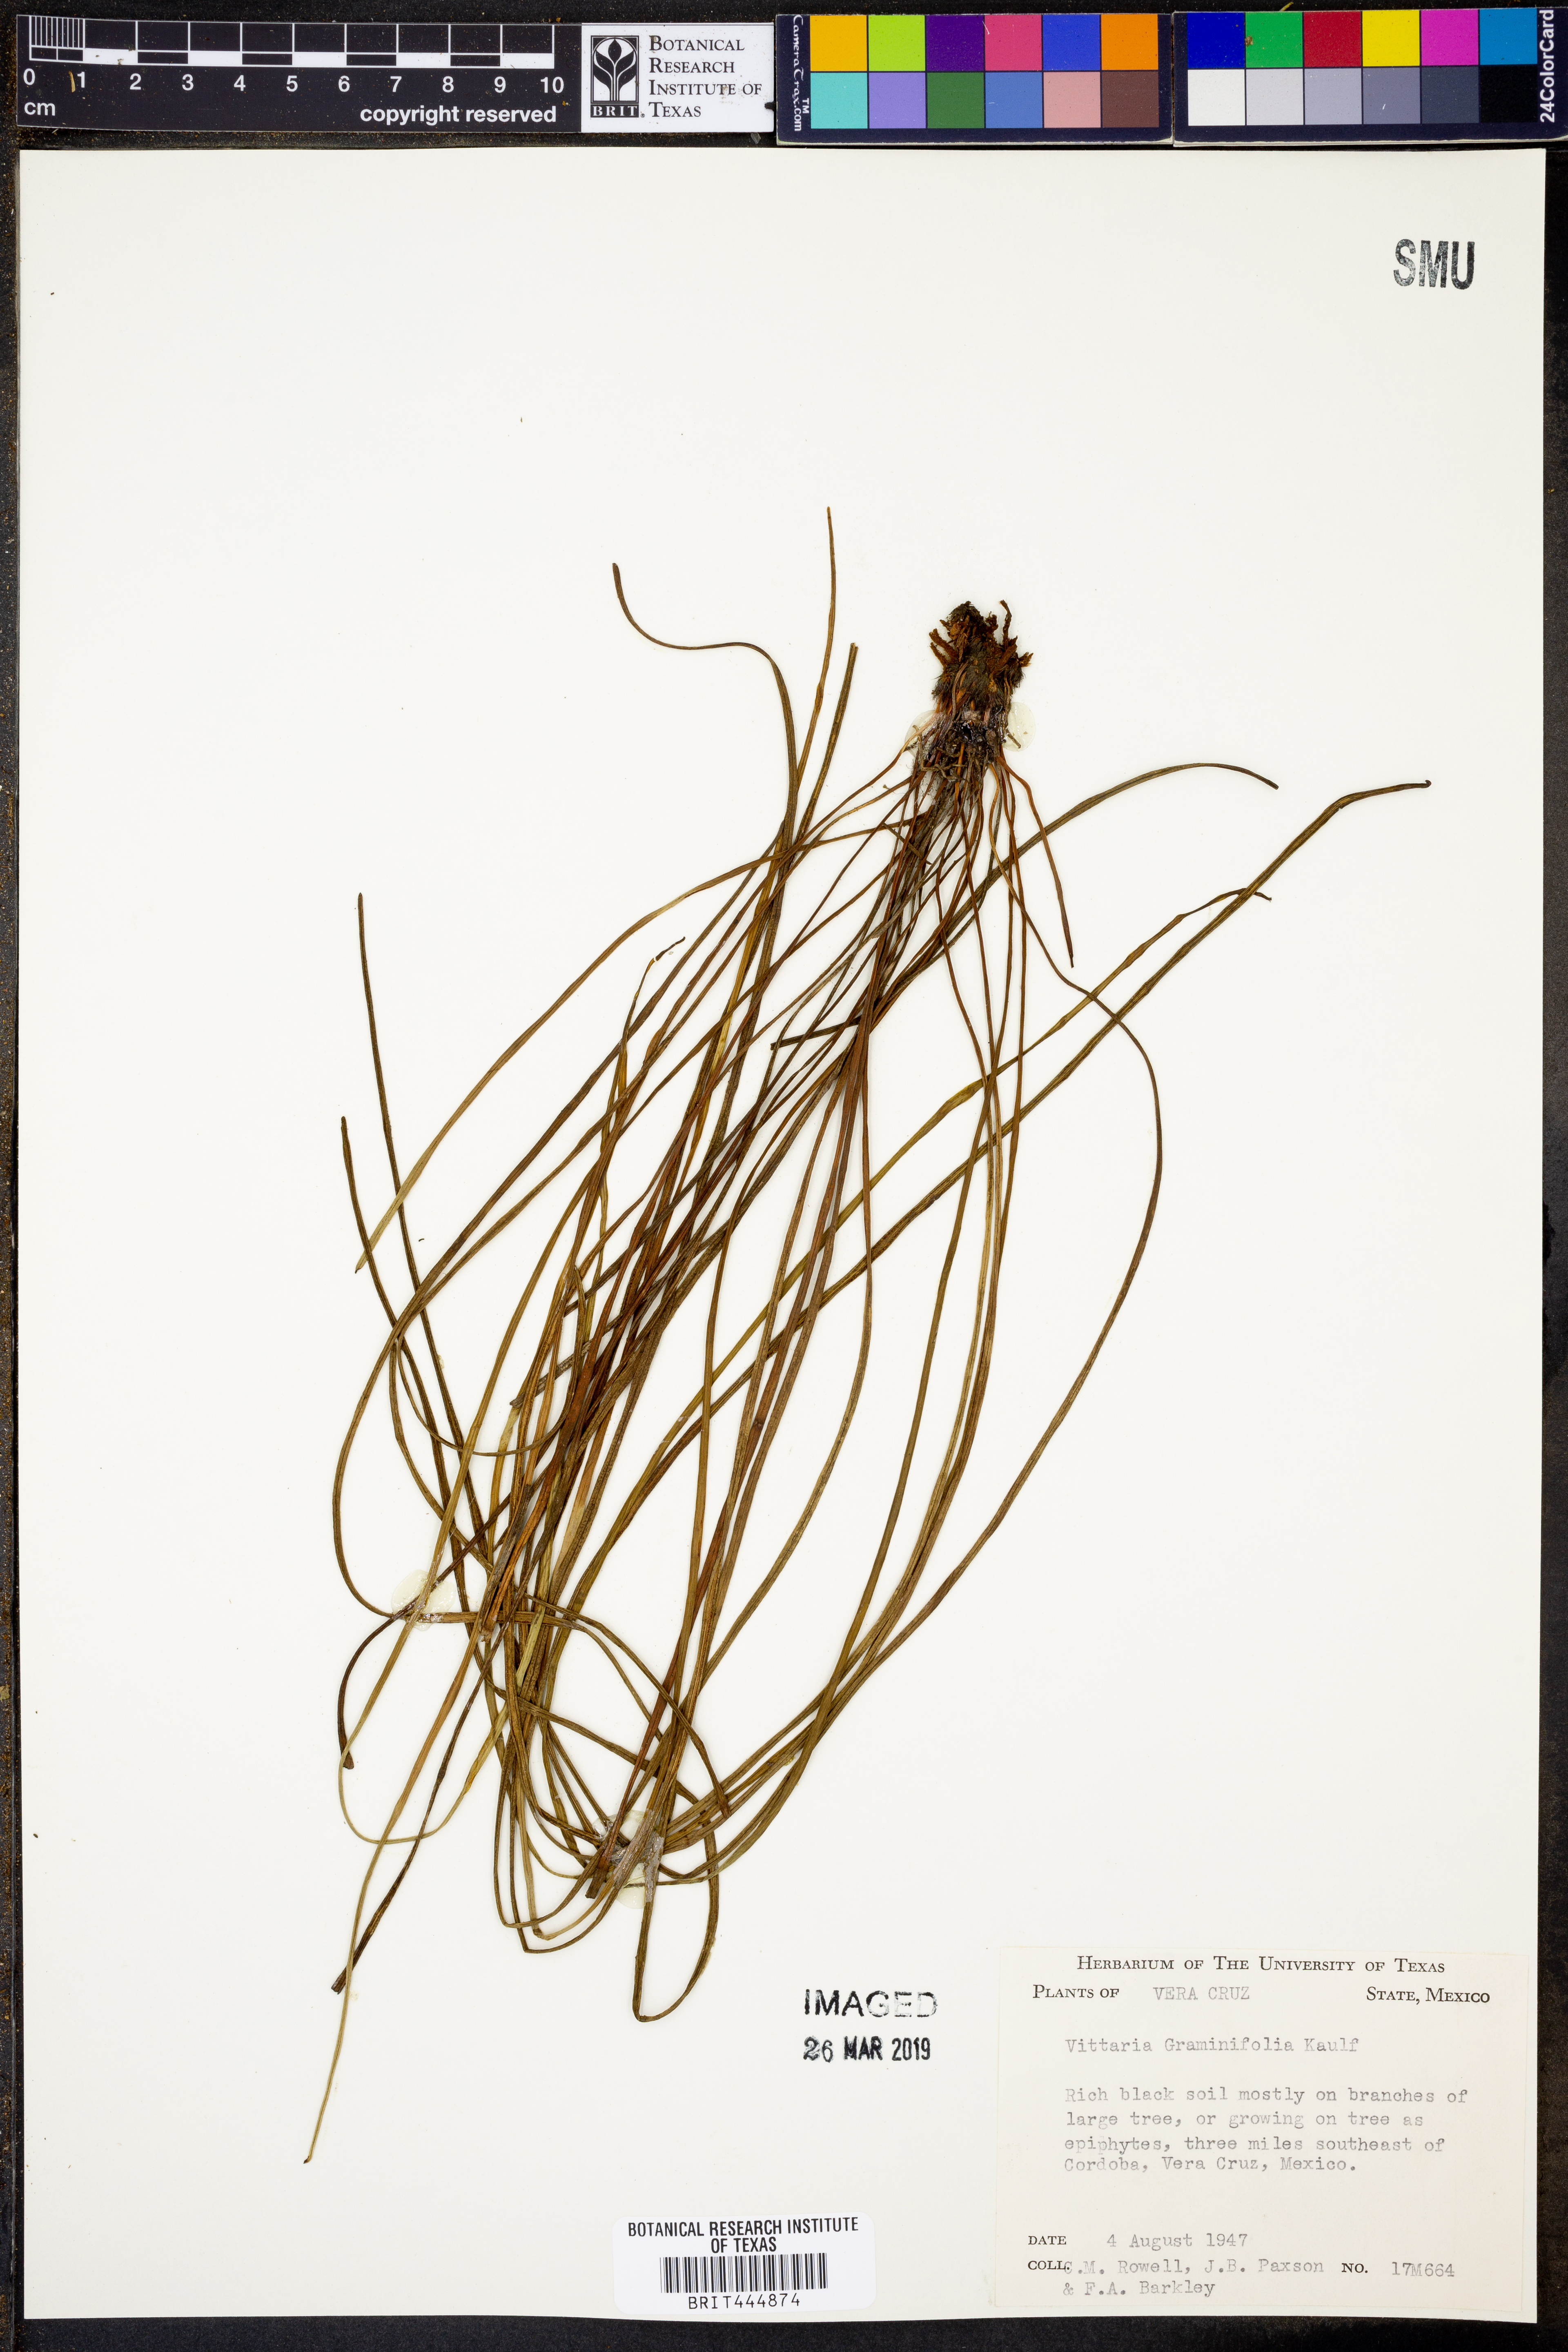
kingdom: Plantae
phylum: Tracheophyta
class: Polypodiopsida
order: Polypodiales
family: Pteridaceae
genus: Vittaria
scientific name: Vittaria graminifolia
